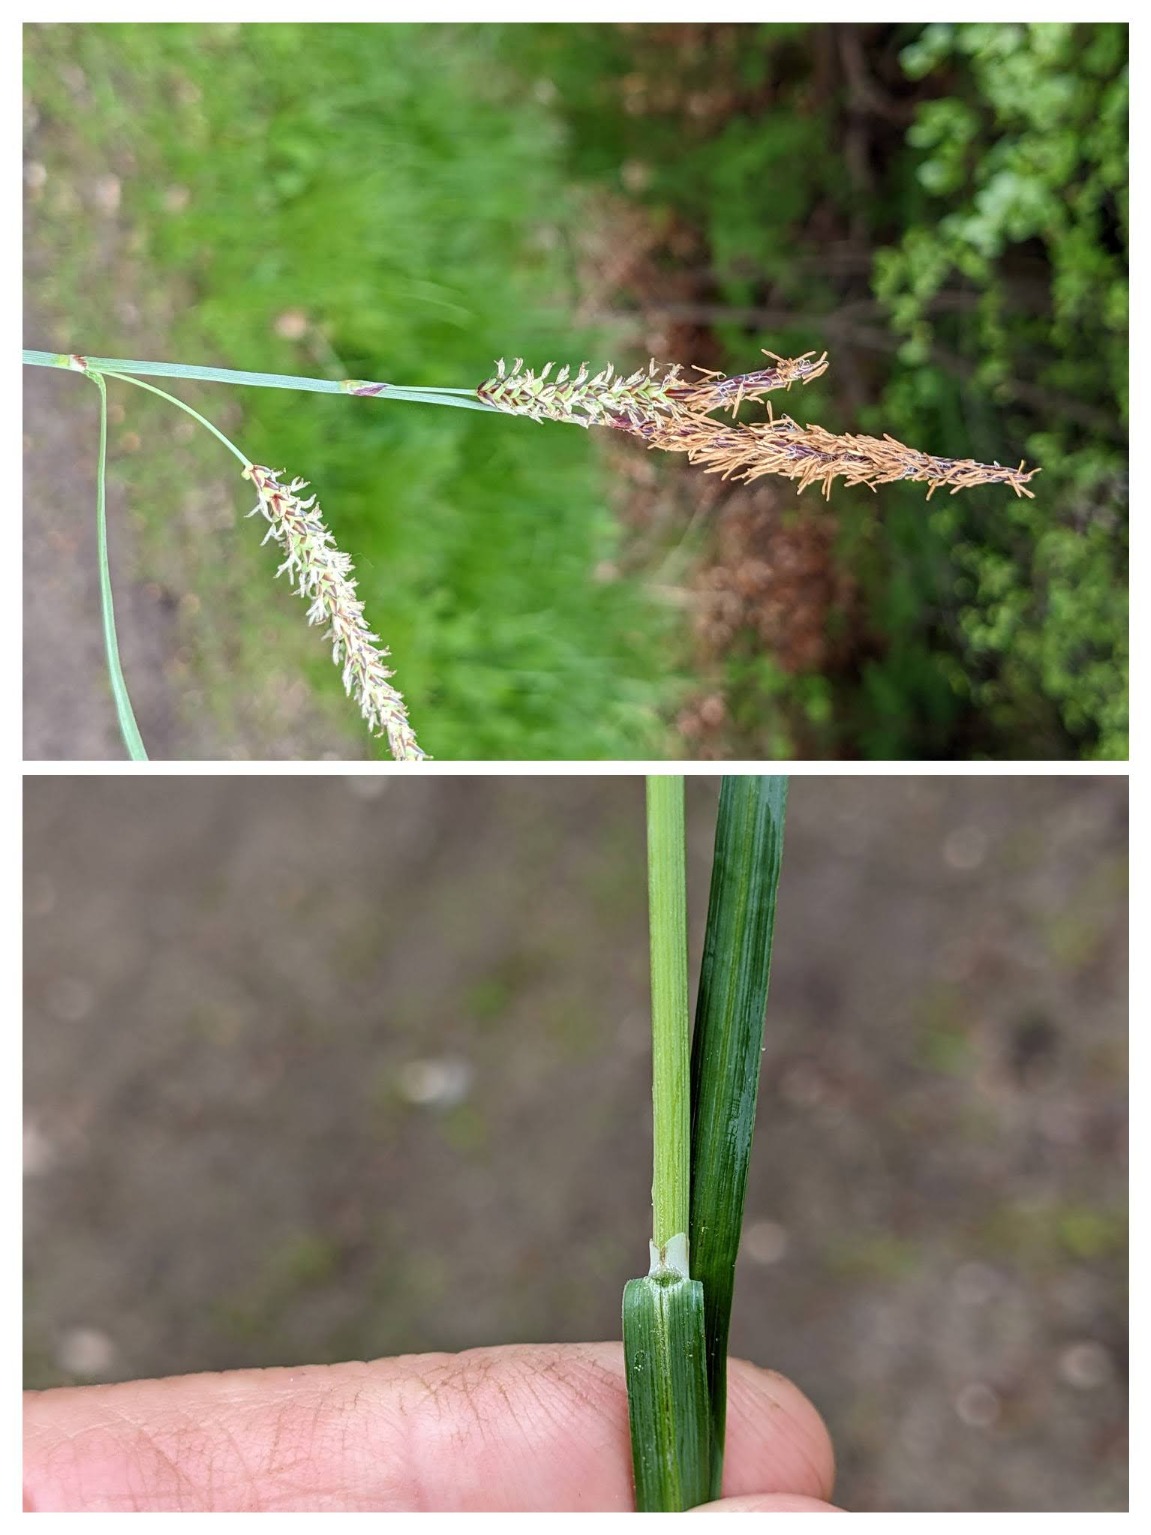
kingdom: Plantae
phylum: Tracheophyta
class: Liliopsida
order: Poales
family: Cyperaceae
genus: Carex
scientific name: Carex flacca
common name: Blågrøn star
